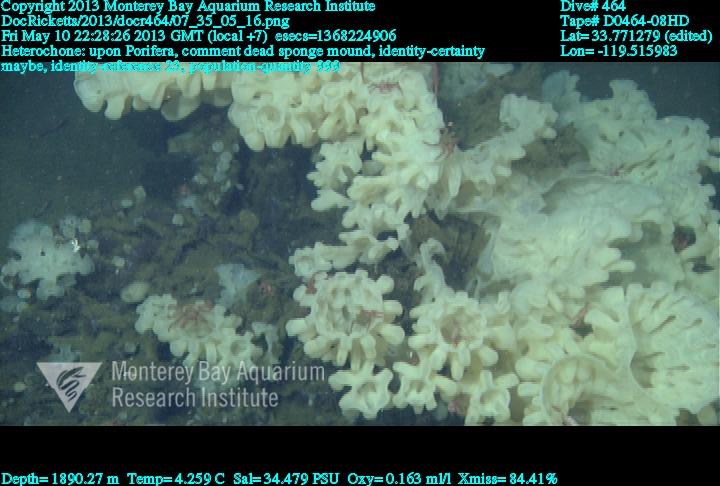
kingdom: Animalia
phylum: Porifera
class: Hexactinellida
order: Sceptrulophora
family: Aphrocallistidae
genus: Heterochone
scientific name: Heterochone
